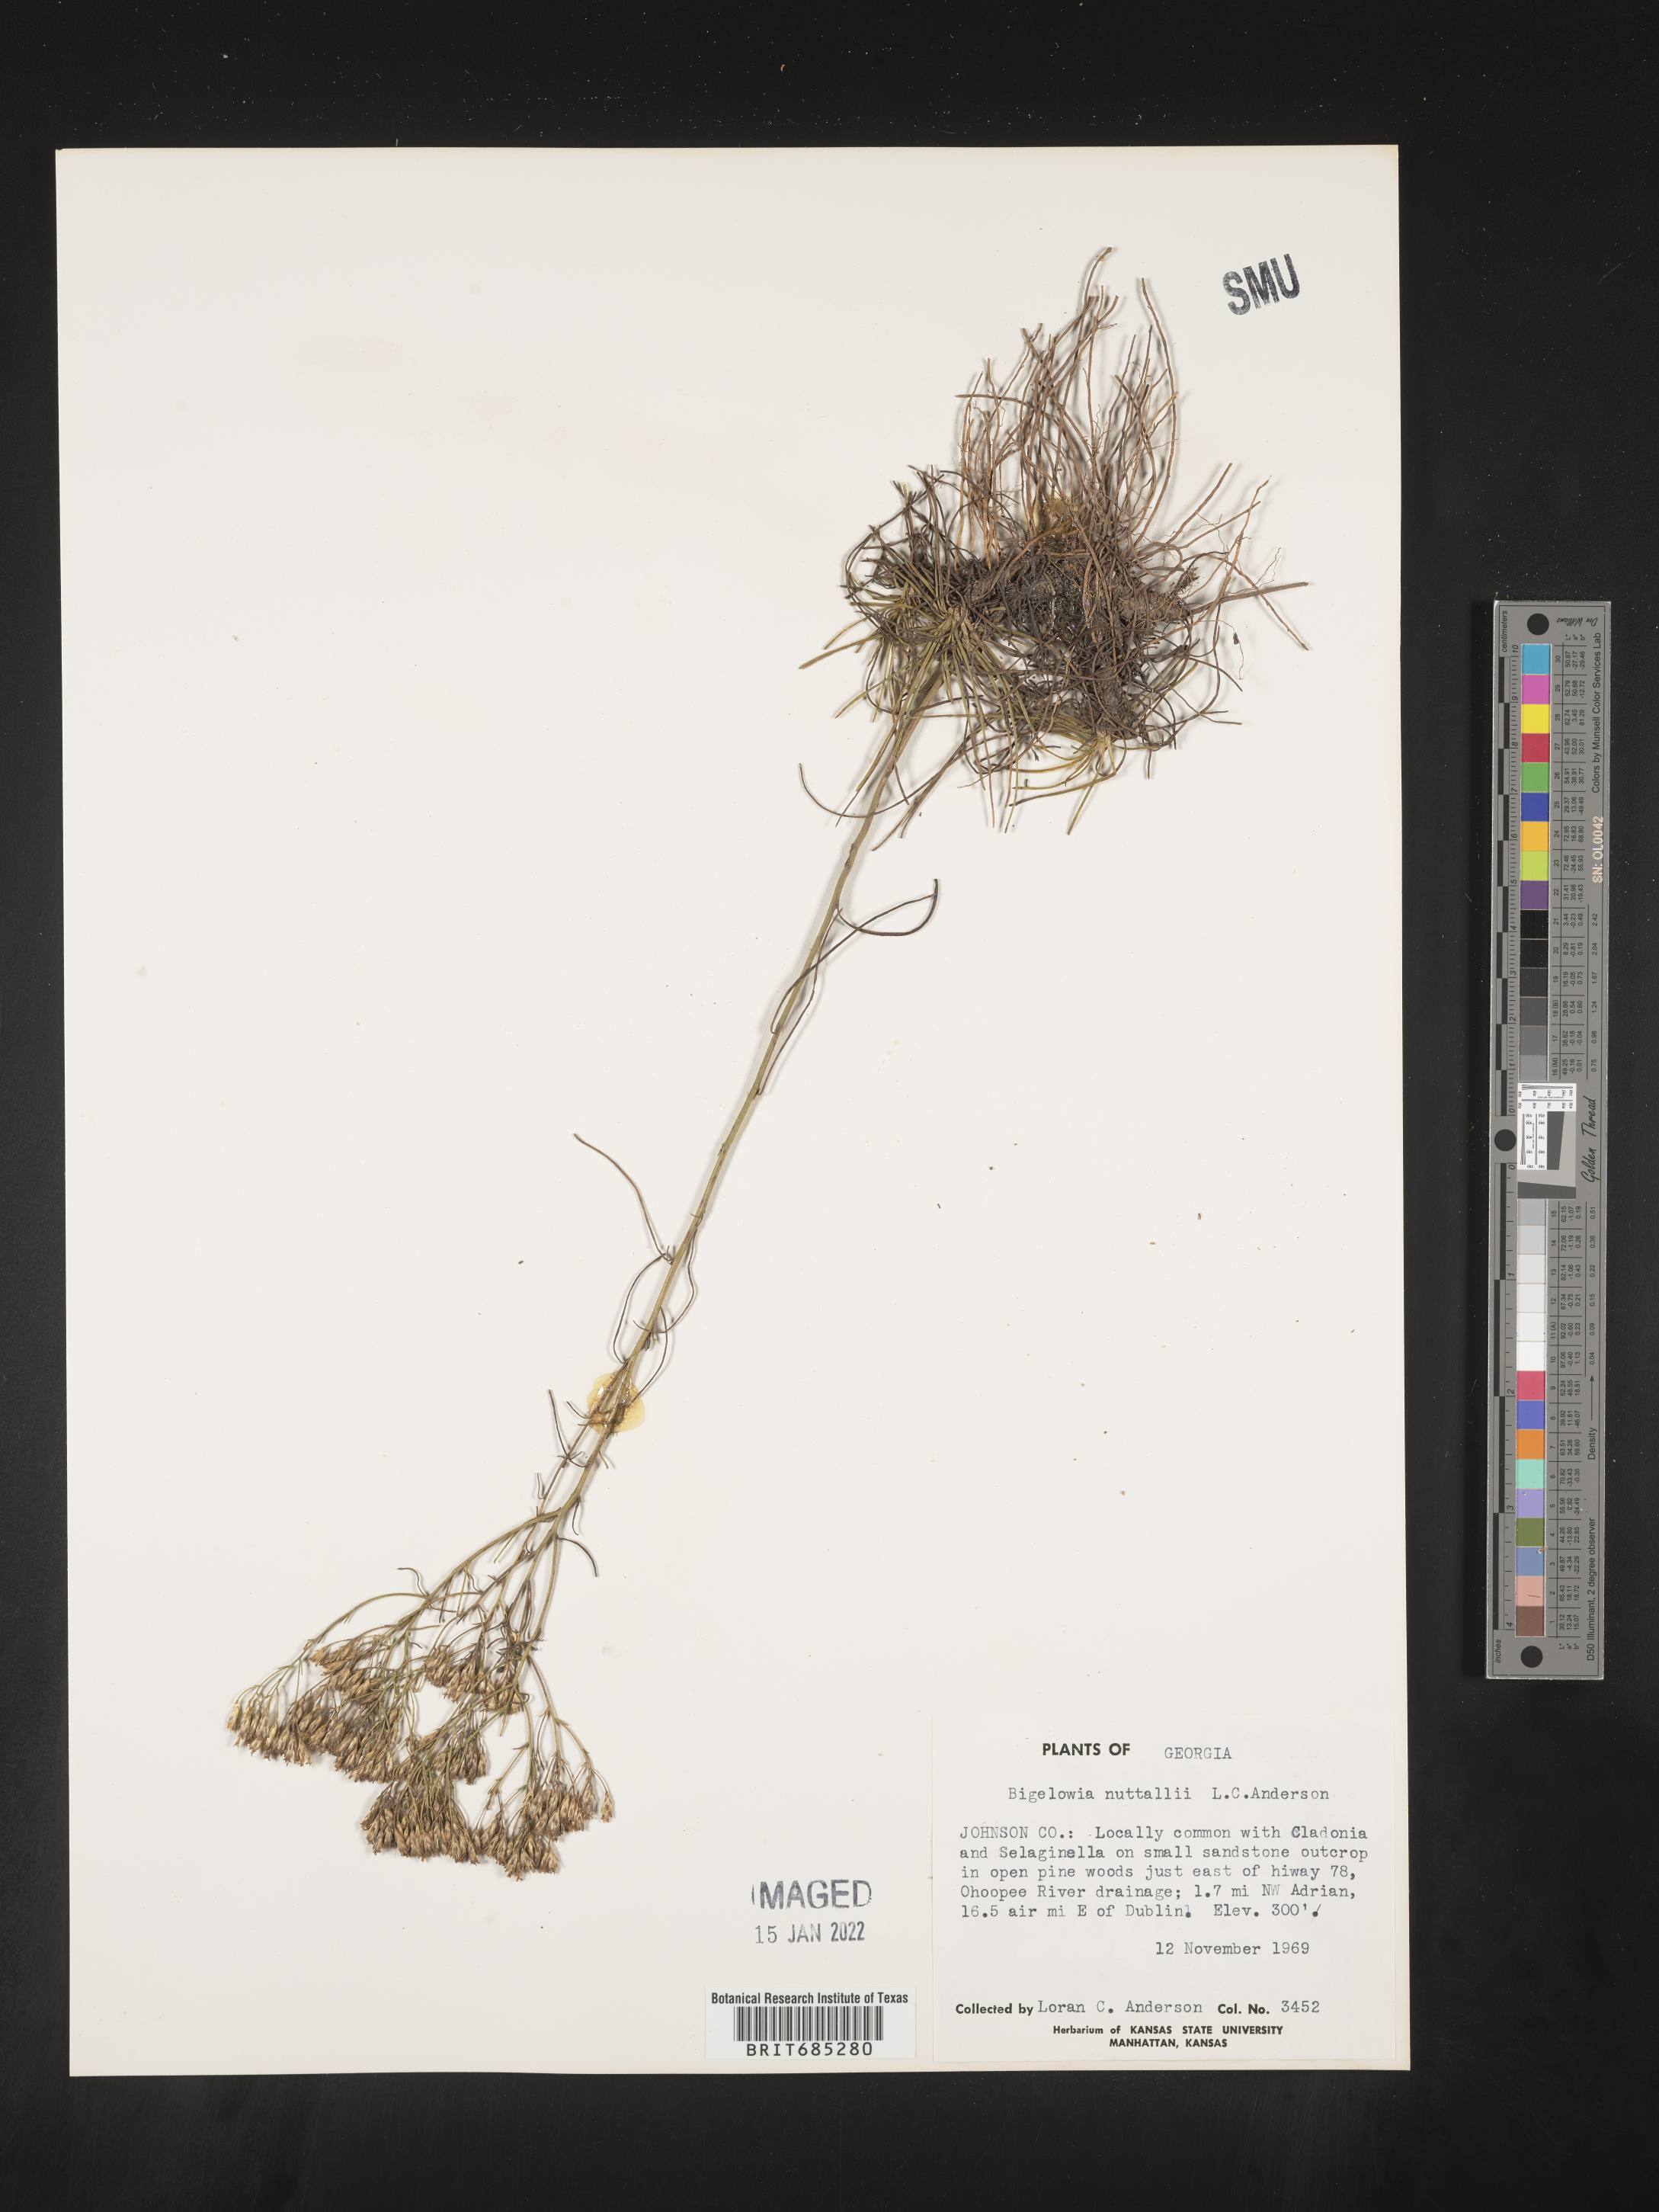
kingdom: Plantae
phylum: Tracheophyta
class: Magnoliopsida
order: Asterales
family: Asteraceae
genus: Bigelowia
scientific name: Bigelowia nudata
